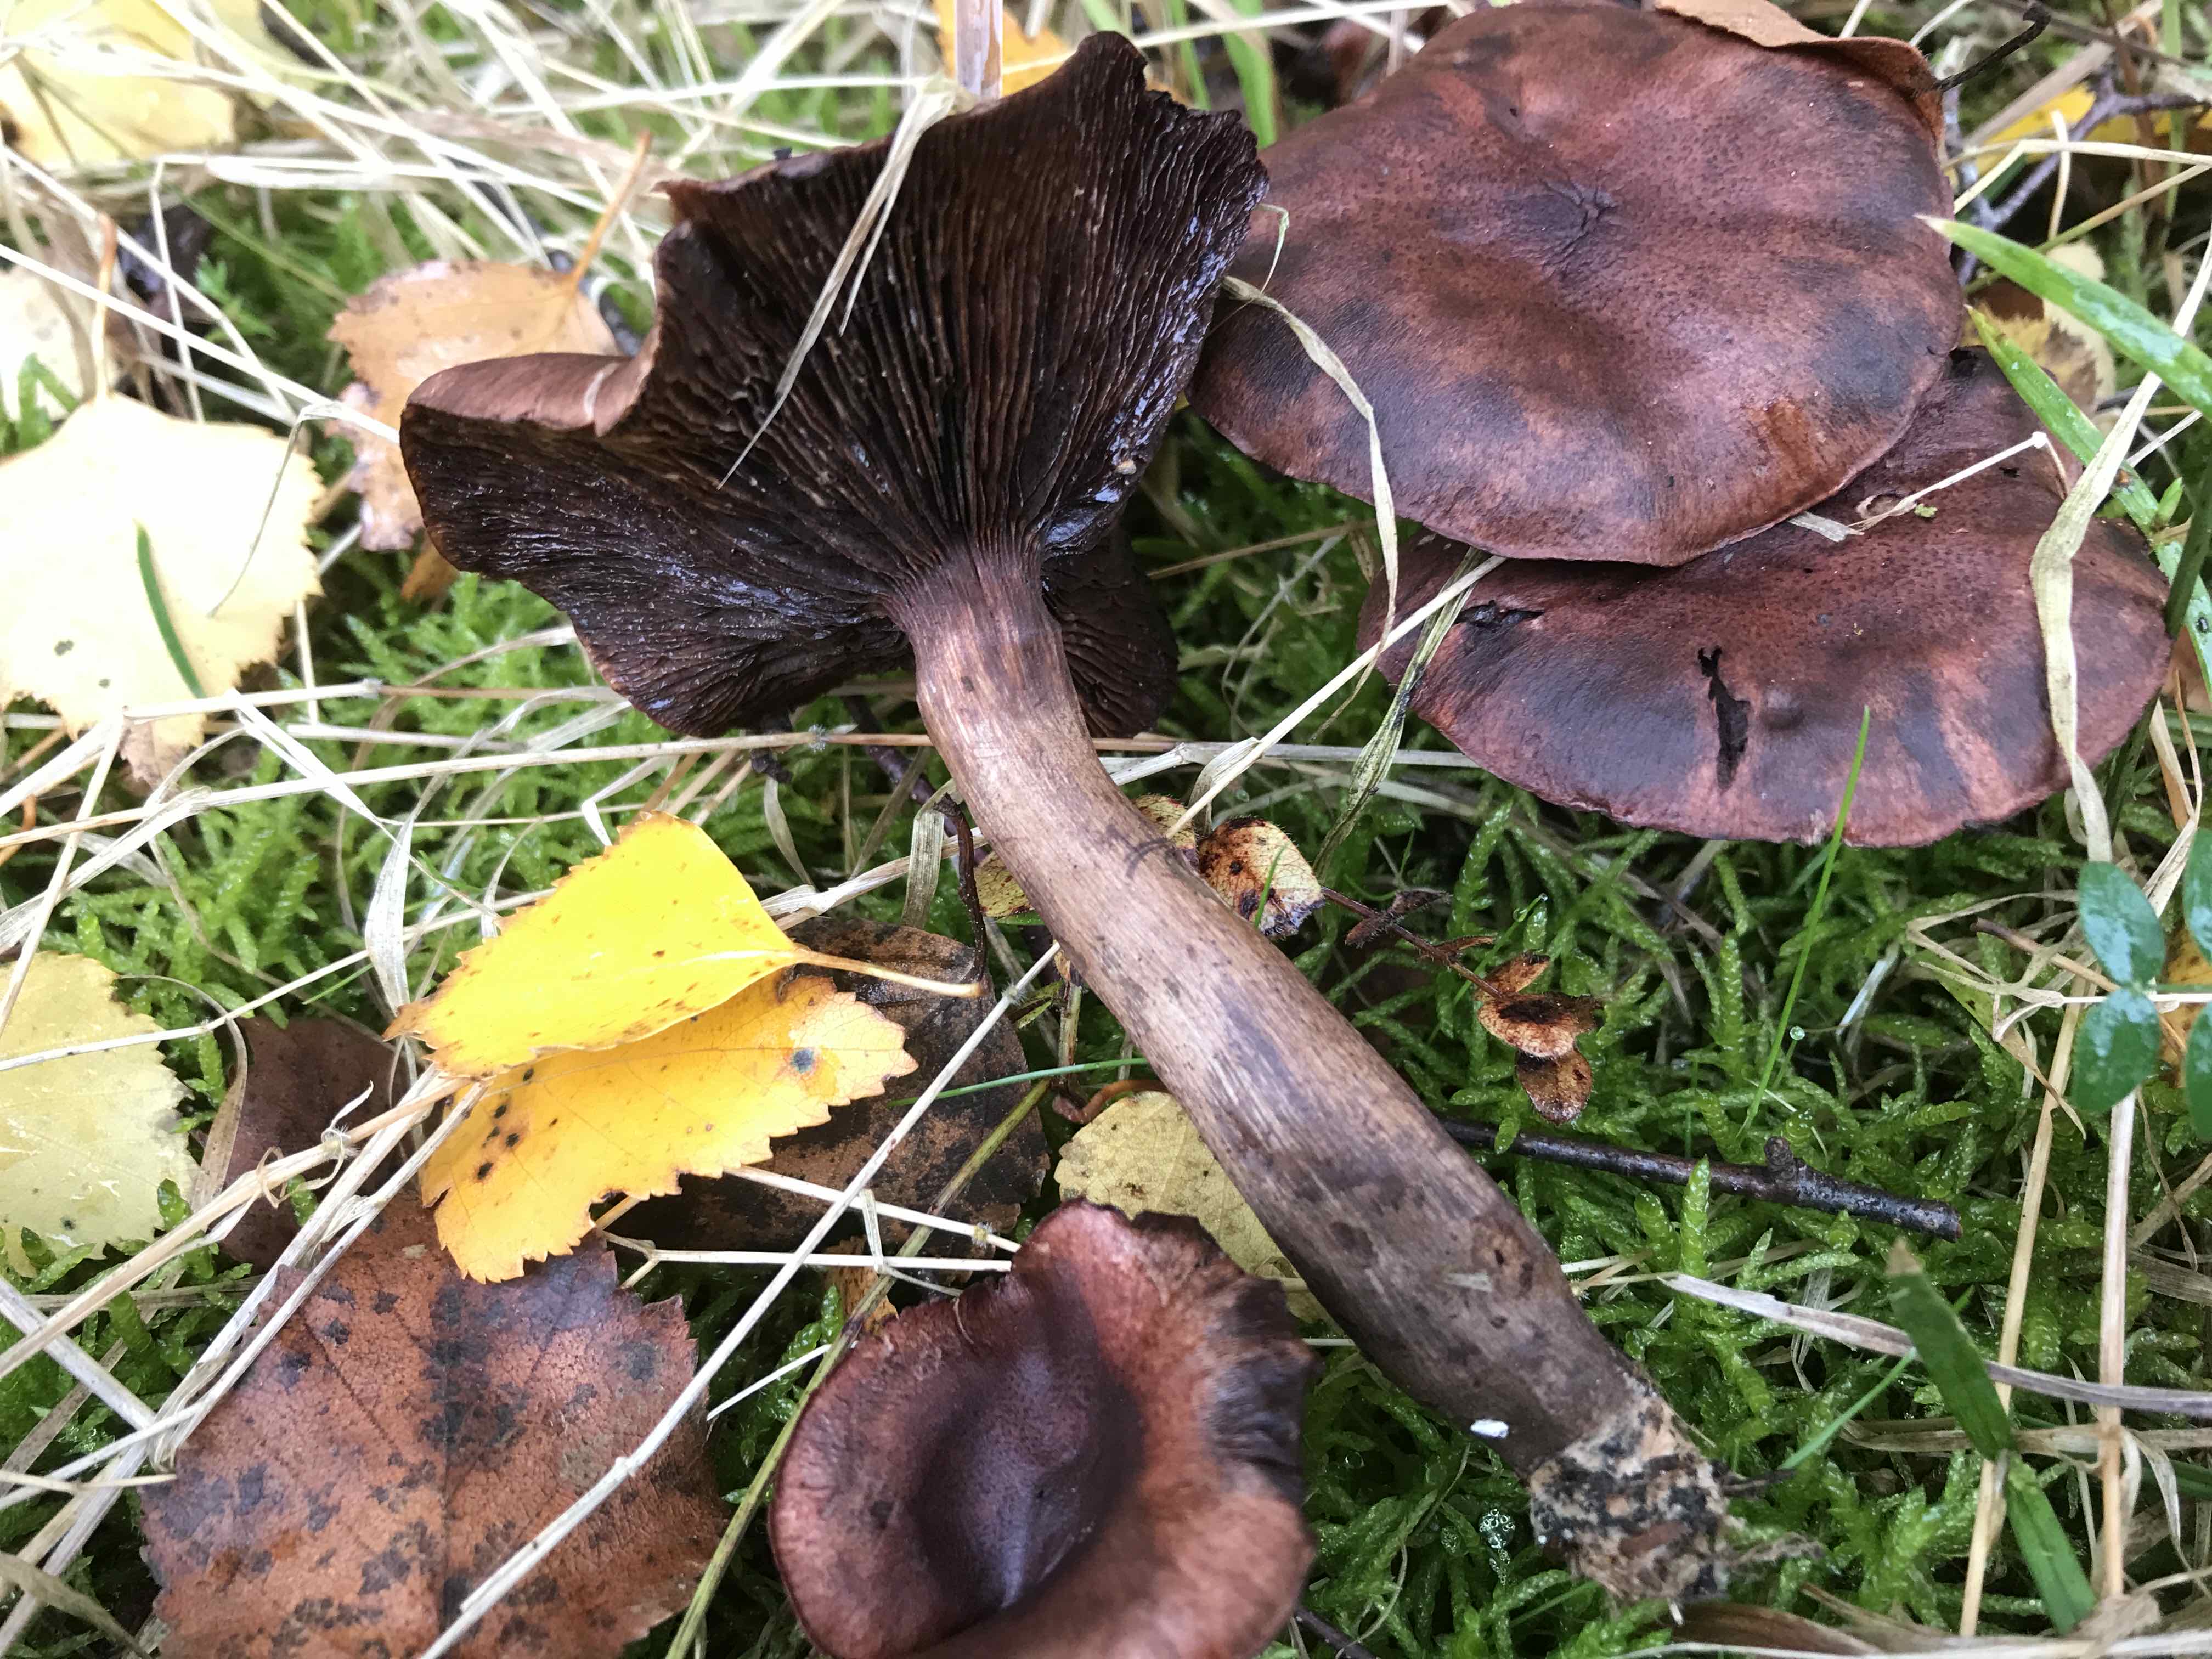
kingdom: Fungi
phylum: Basidiomycota
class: Agaricomycetes
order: Agaricales
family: Tricholomataceae
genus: Tricholoma
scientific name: Tricholoma fulvum
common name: birke-ridderhat
